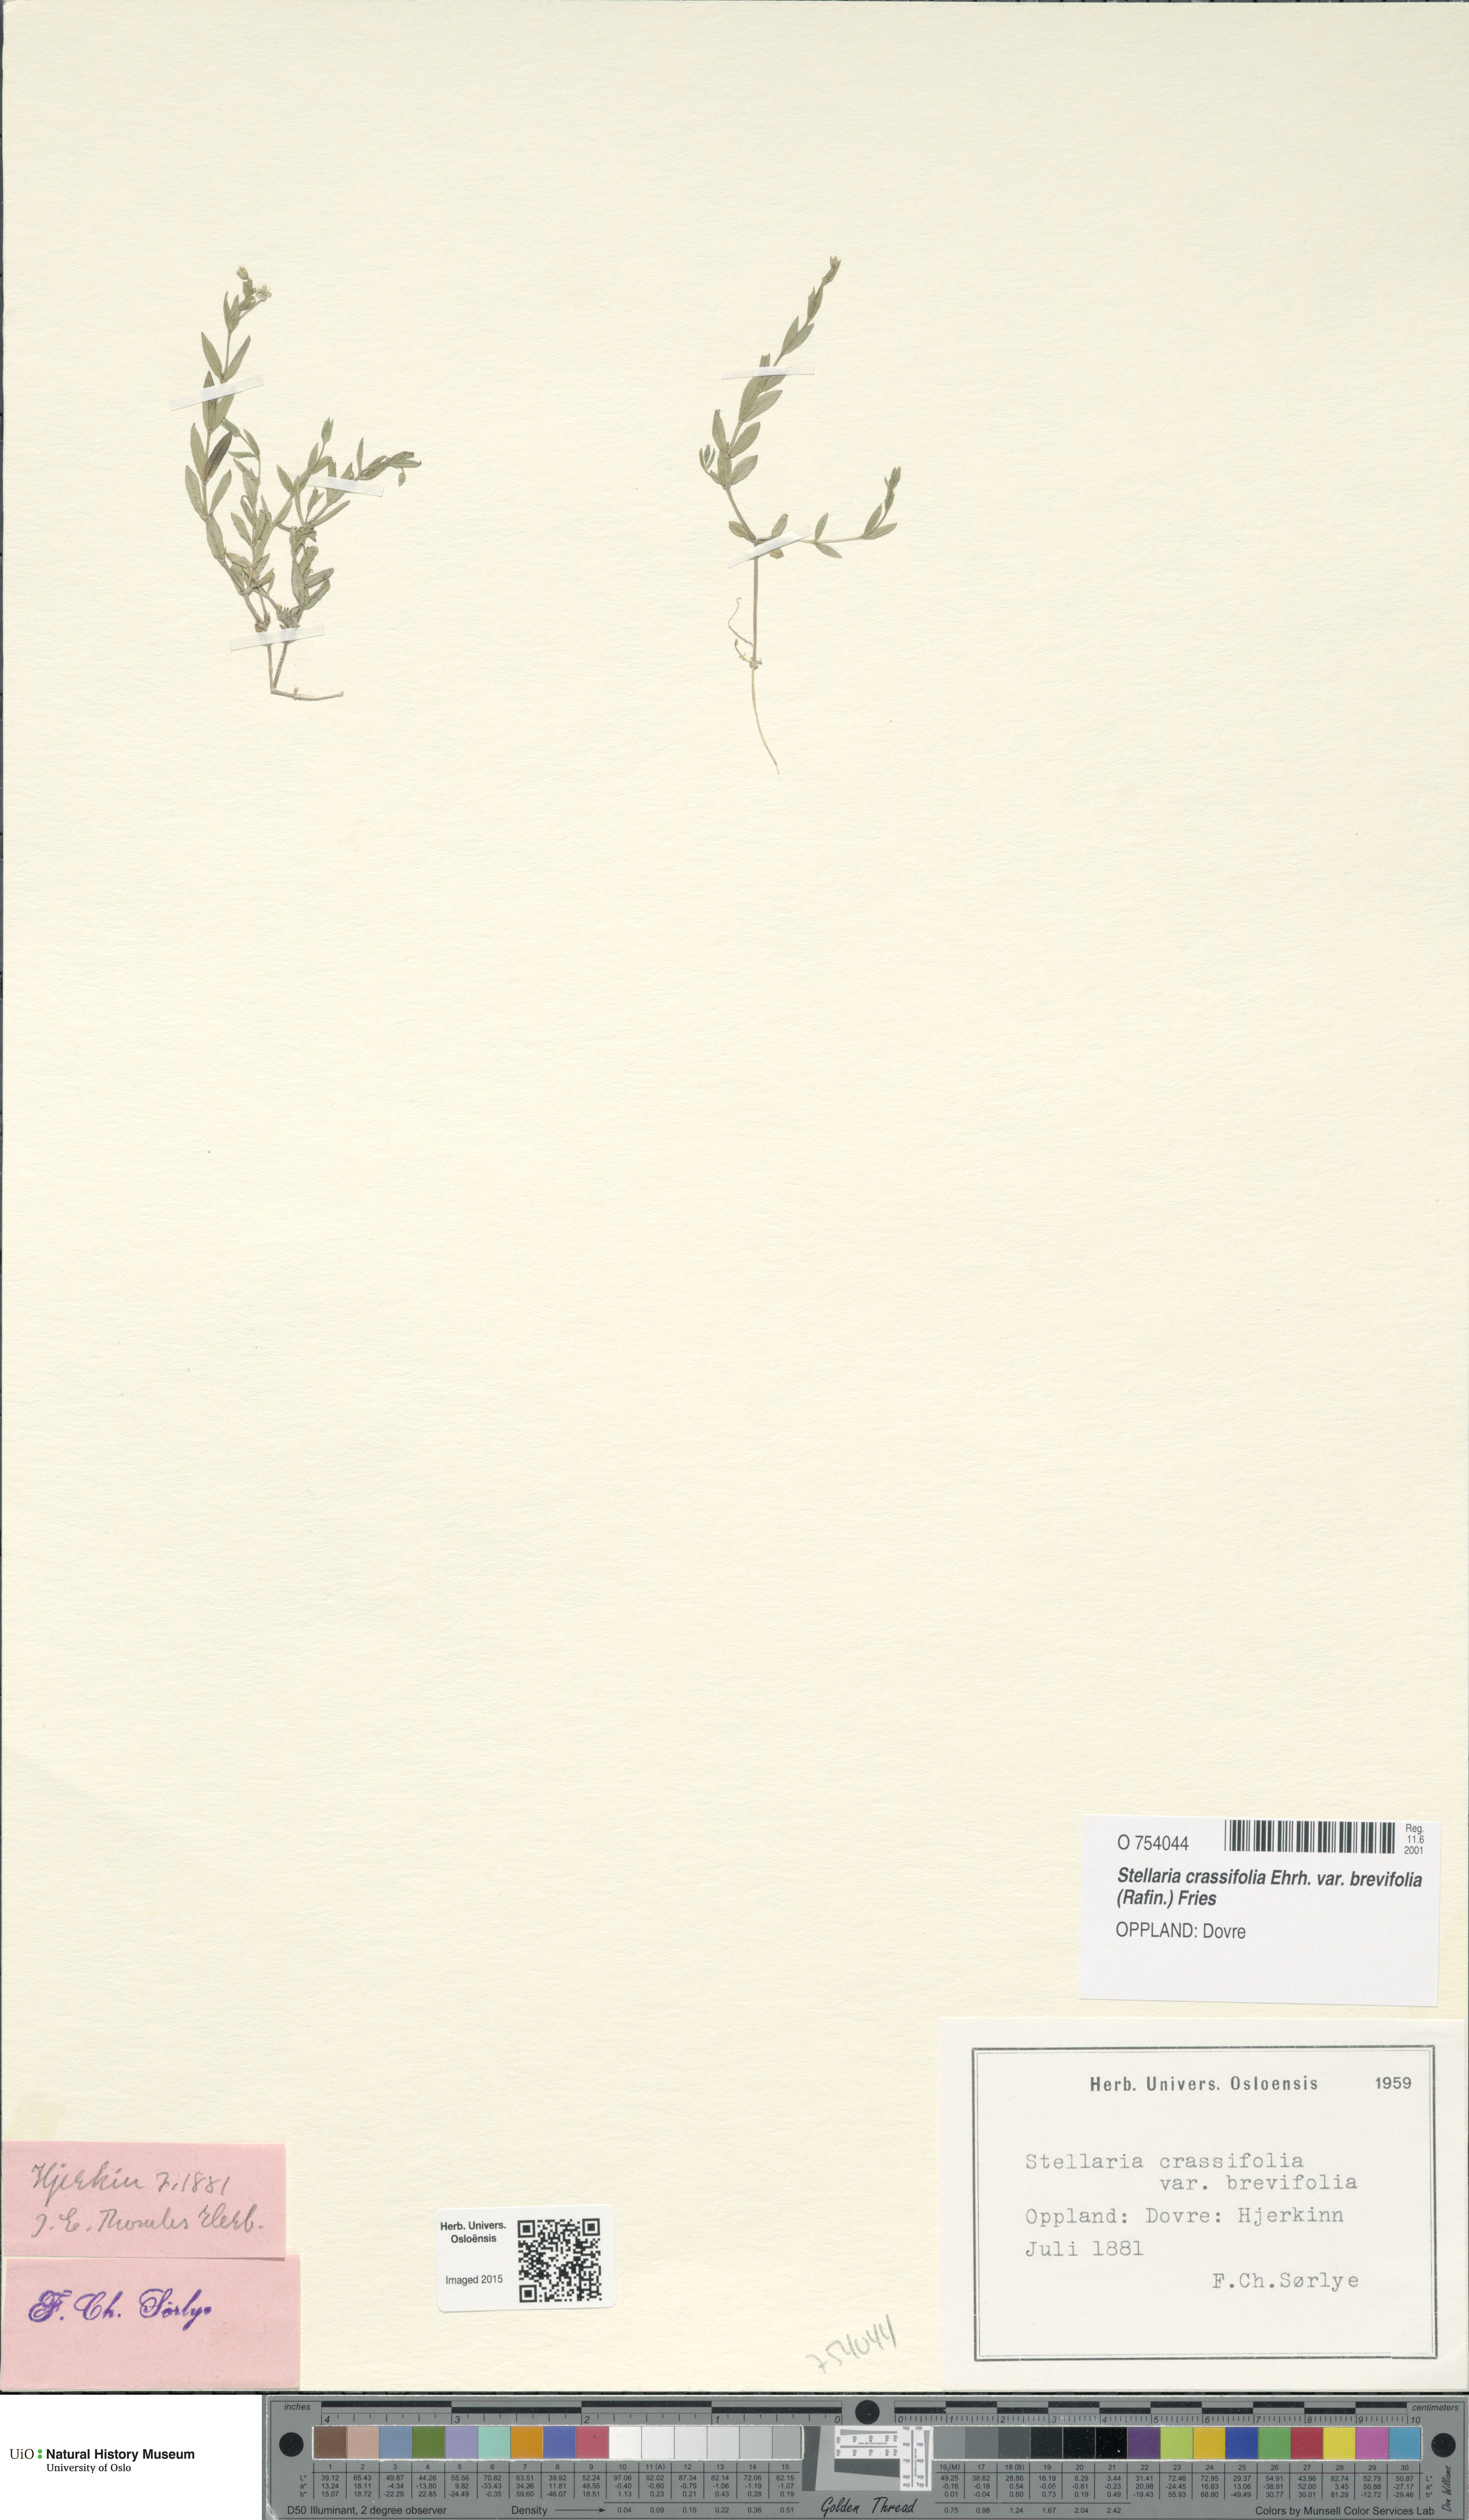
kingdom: Plantae
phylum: Tracheophyta
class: Magnoliopsida
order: Caryophyllales
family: Caryophyllaceae
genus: Stellaria
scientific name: Stellaria crassifolia
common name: Fleshy starwort
